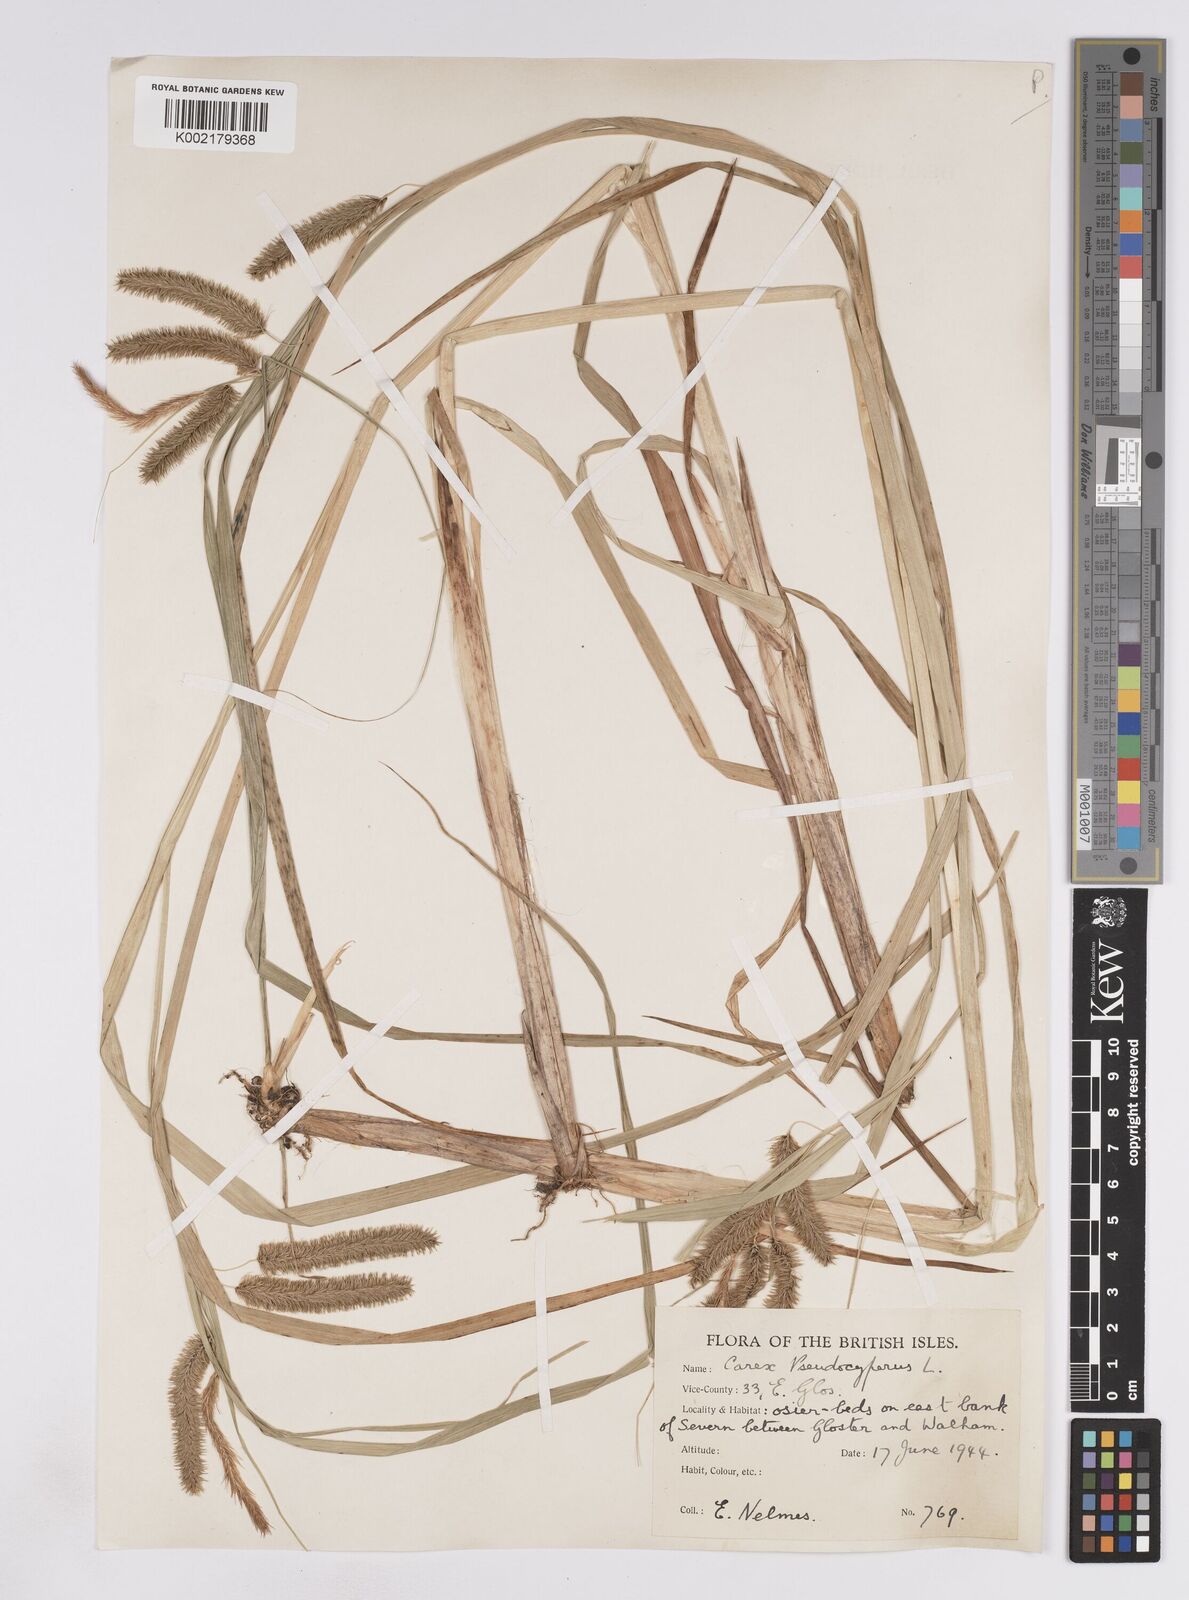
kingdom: Plantae
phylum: Tracheophyta
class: Liliopsida
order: Poales
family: Cyperaceae
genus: Carex
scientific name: Carex pseudocyperus
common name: Cyperus sedge
